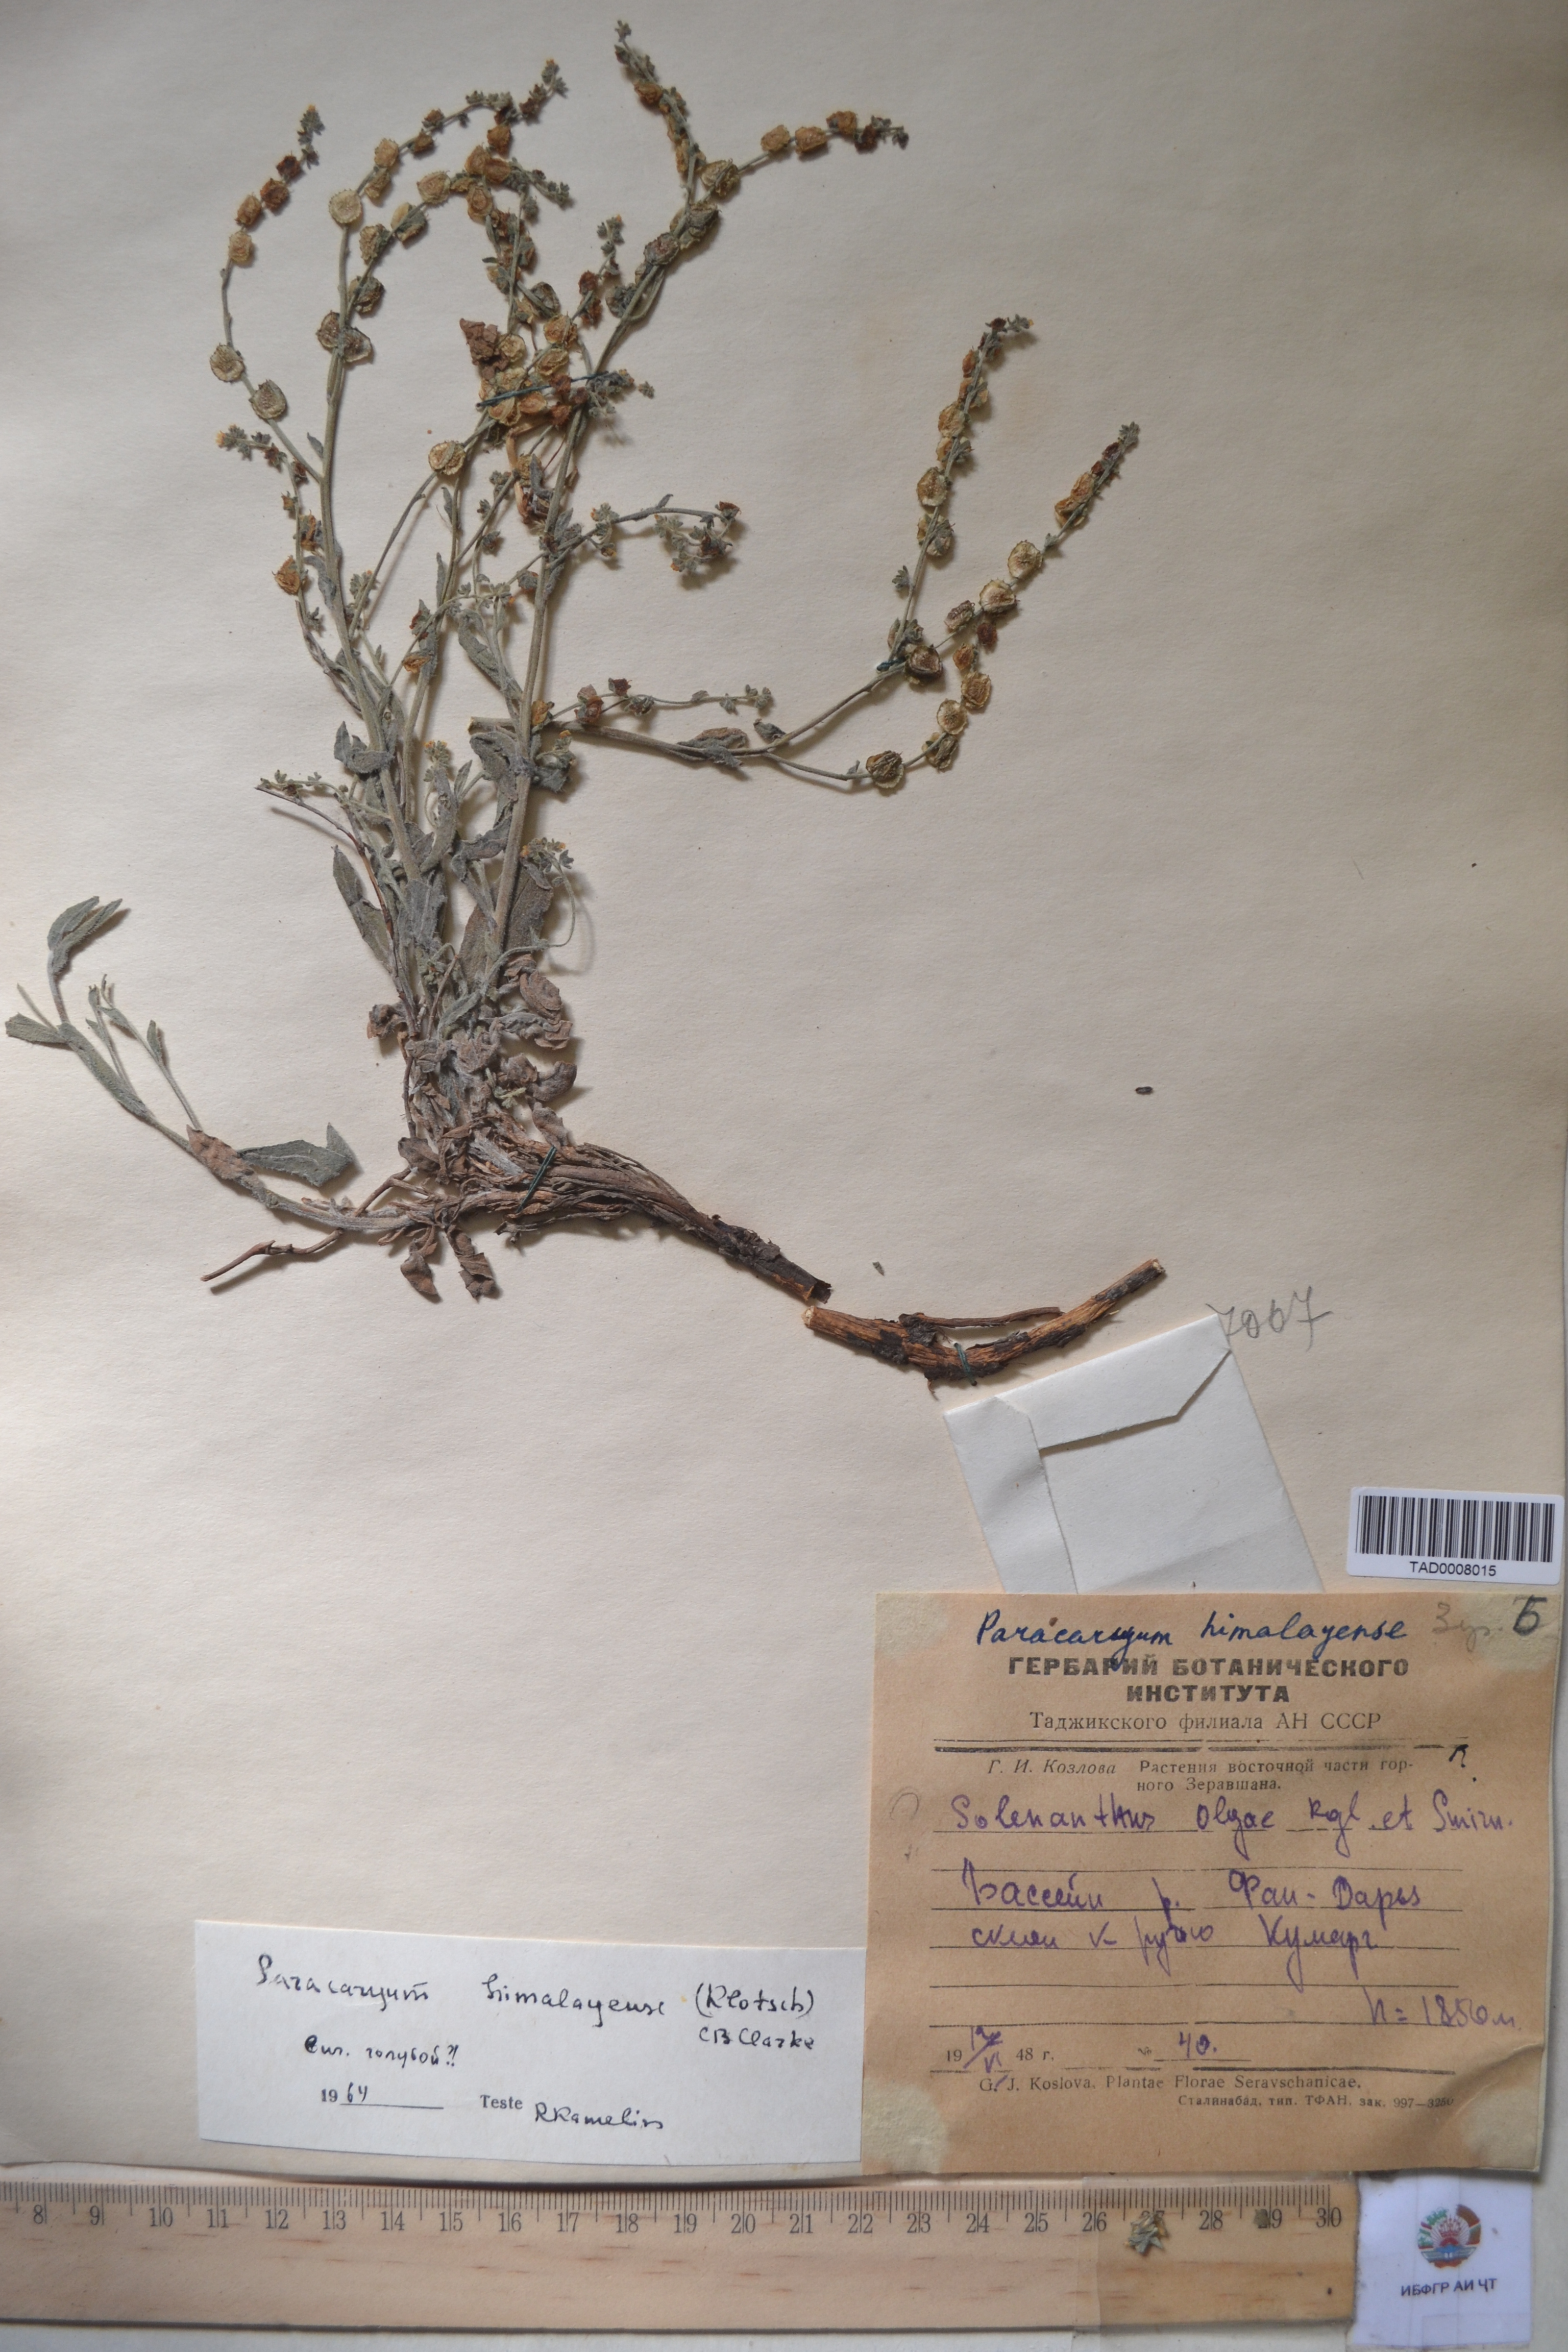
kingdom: Plantae
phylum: Tracheophyta
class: Magnoliopsida
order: Boraginales
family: Boraginaceae
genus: Paracaryum
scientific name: Paracaryum himalayense
